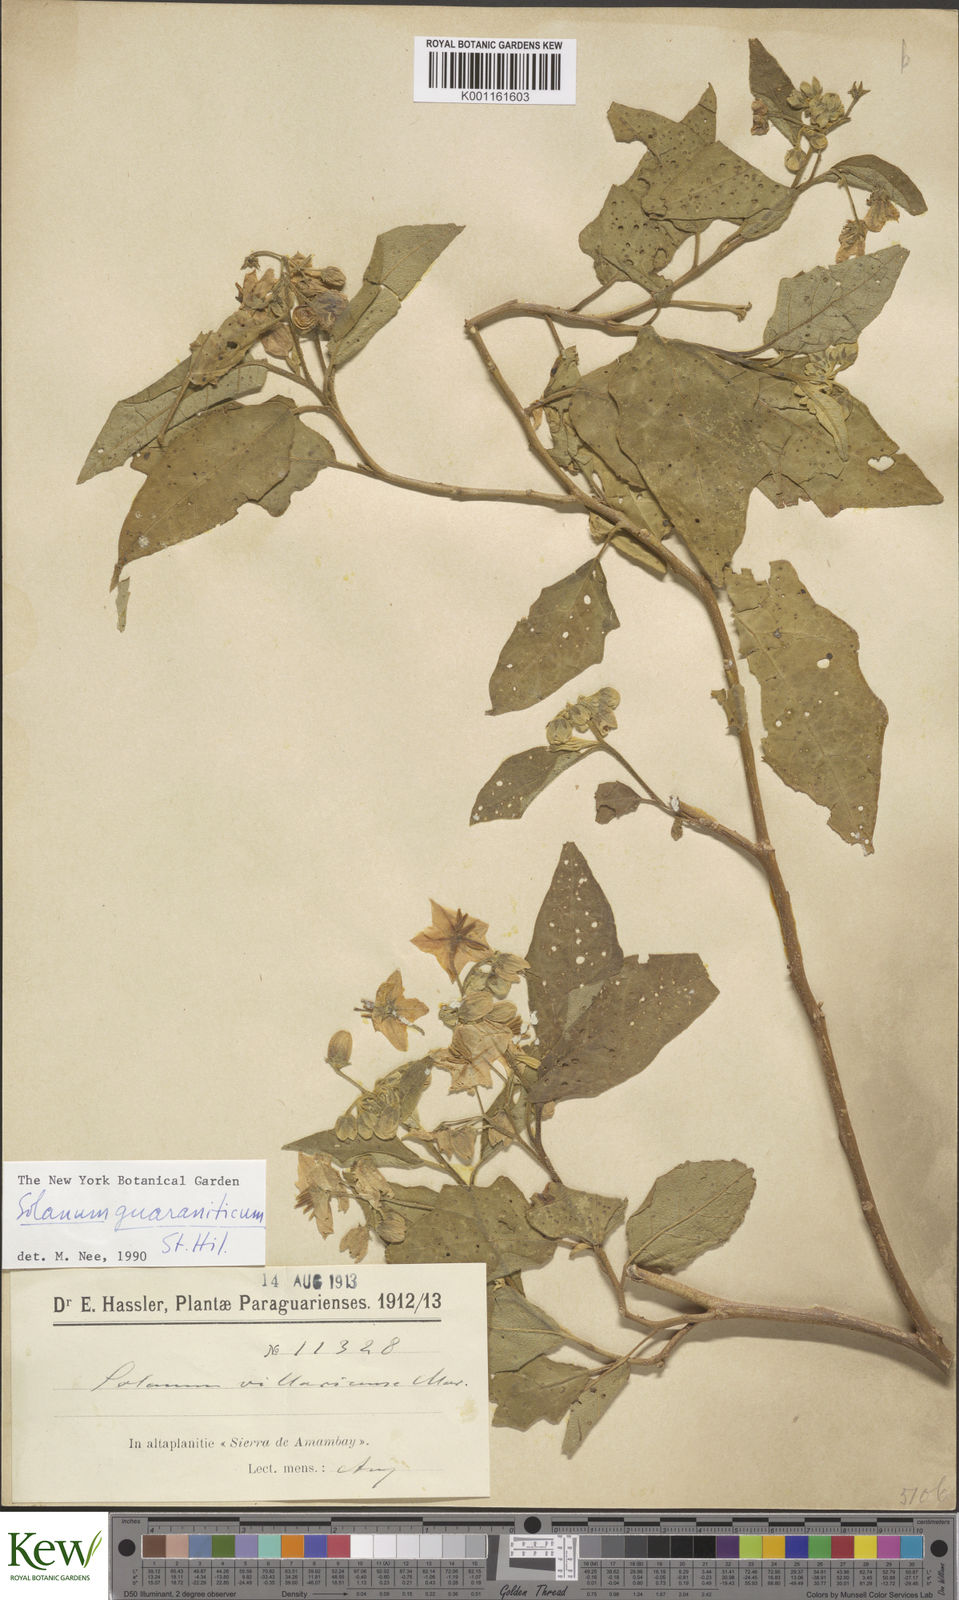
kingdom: Plantae
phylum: Tracheophyta
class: Magnoliopsida
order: Solanales
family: Solanaceae
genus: Solanum
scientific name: Solanum guaraniticum
